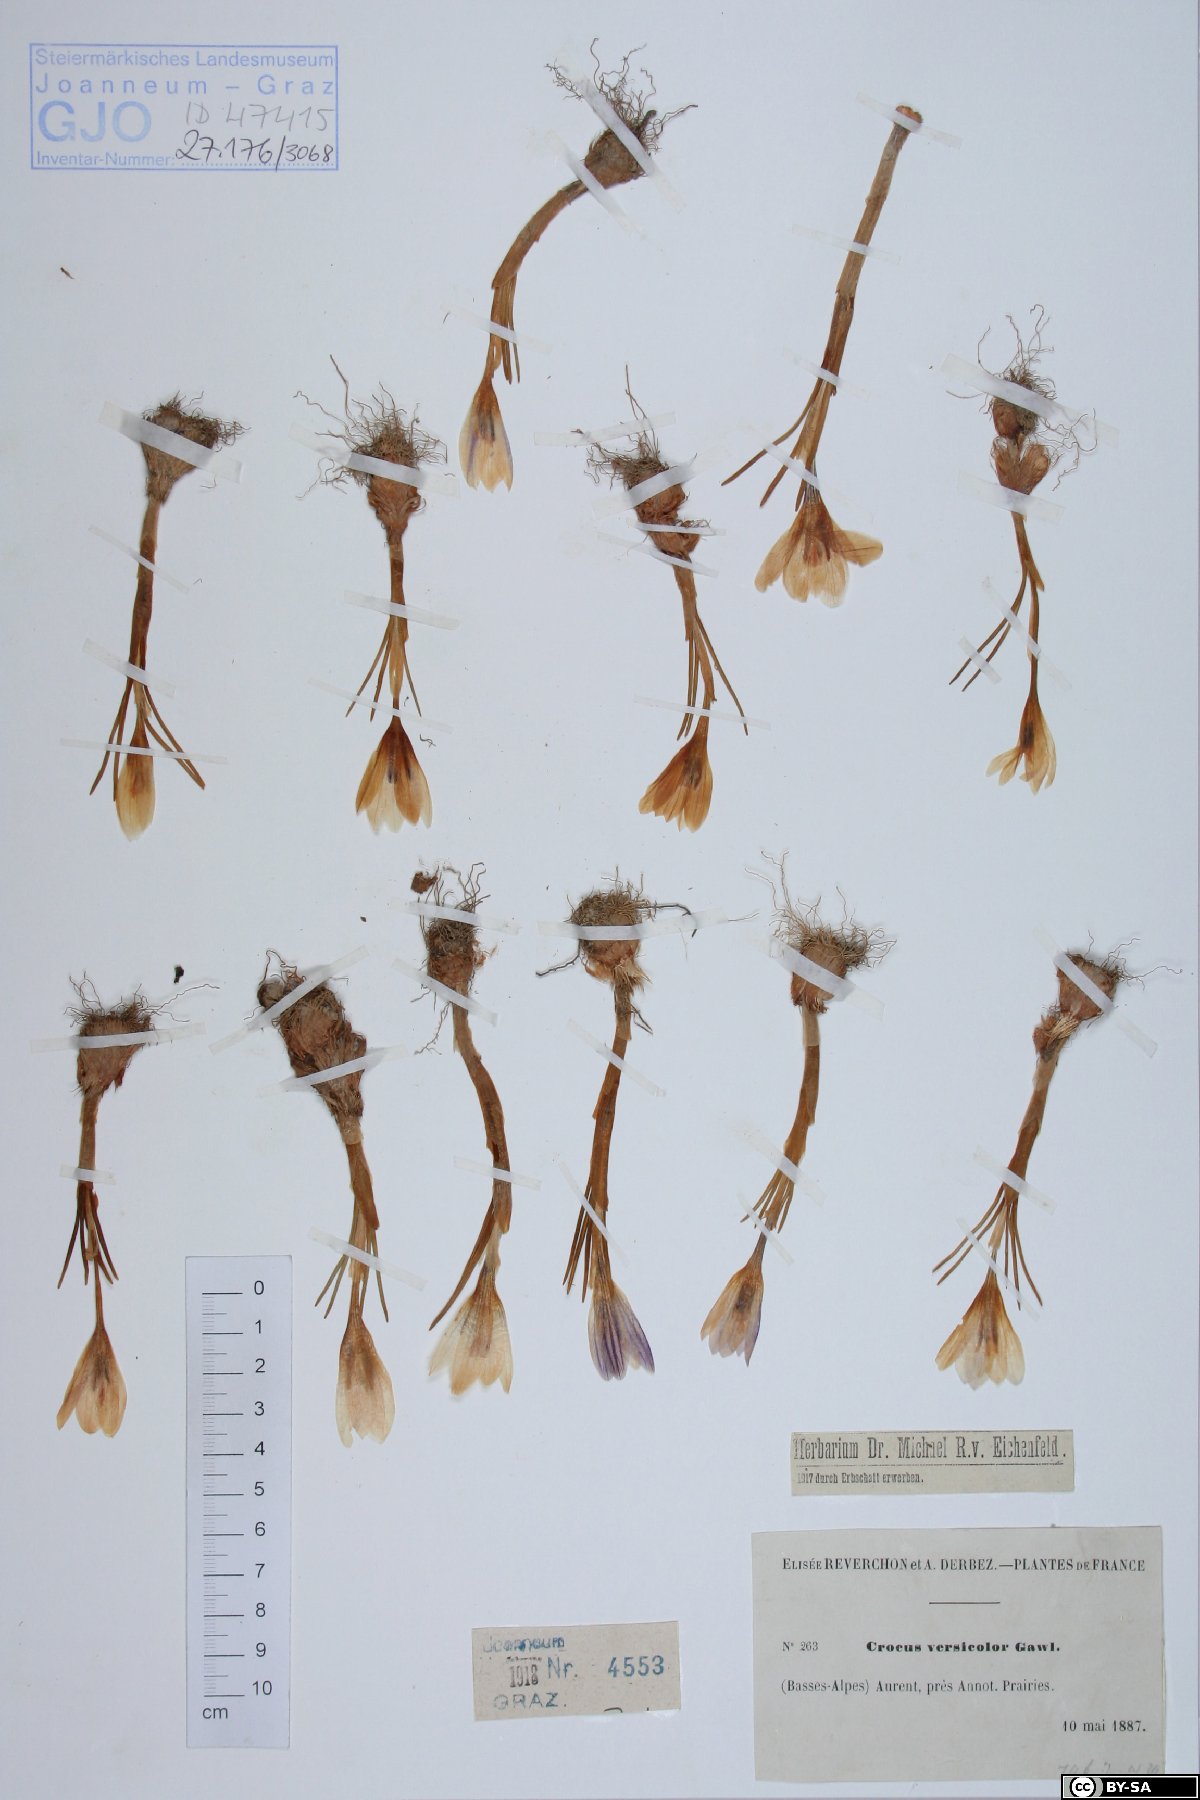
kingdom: Plantae
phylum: Tracheophyta
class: Liliopsida
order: Asparagales
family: Iridaceae
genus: Crocus
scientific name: Crocus versicolor
